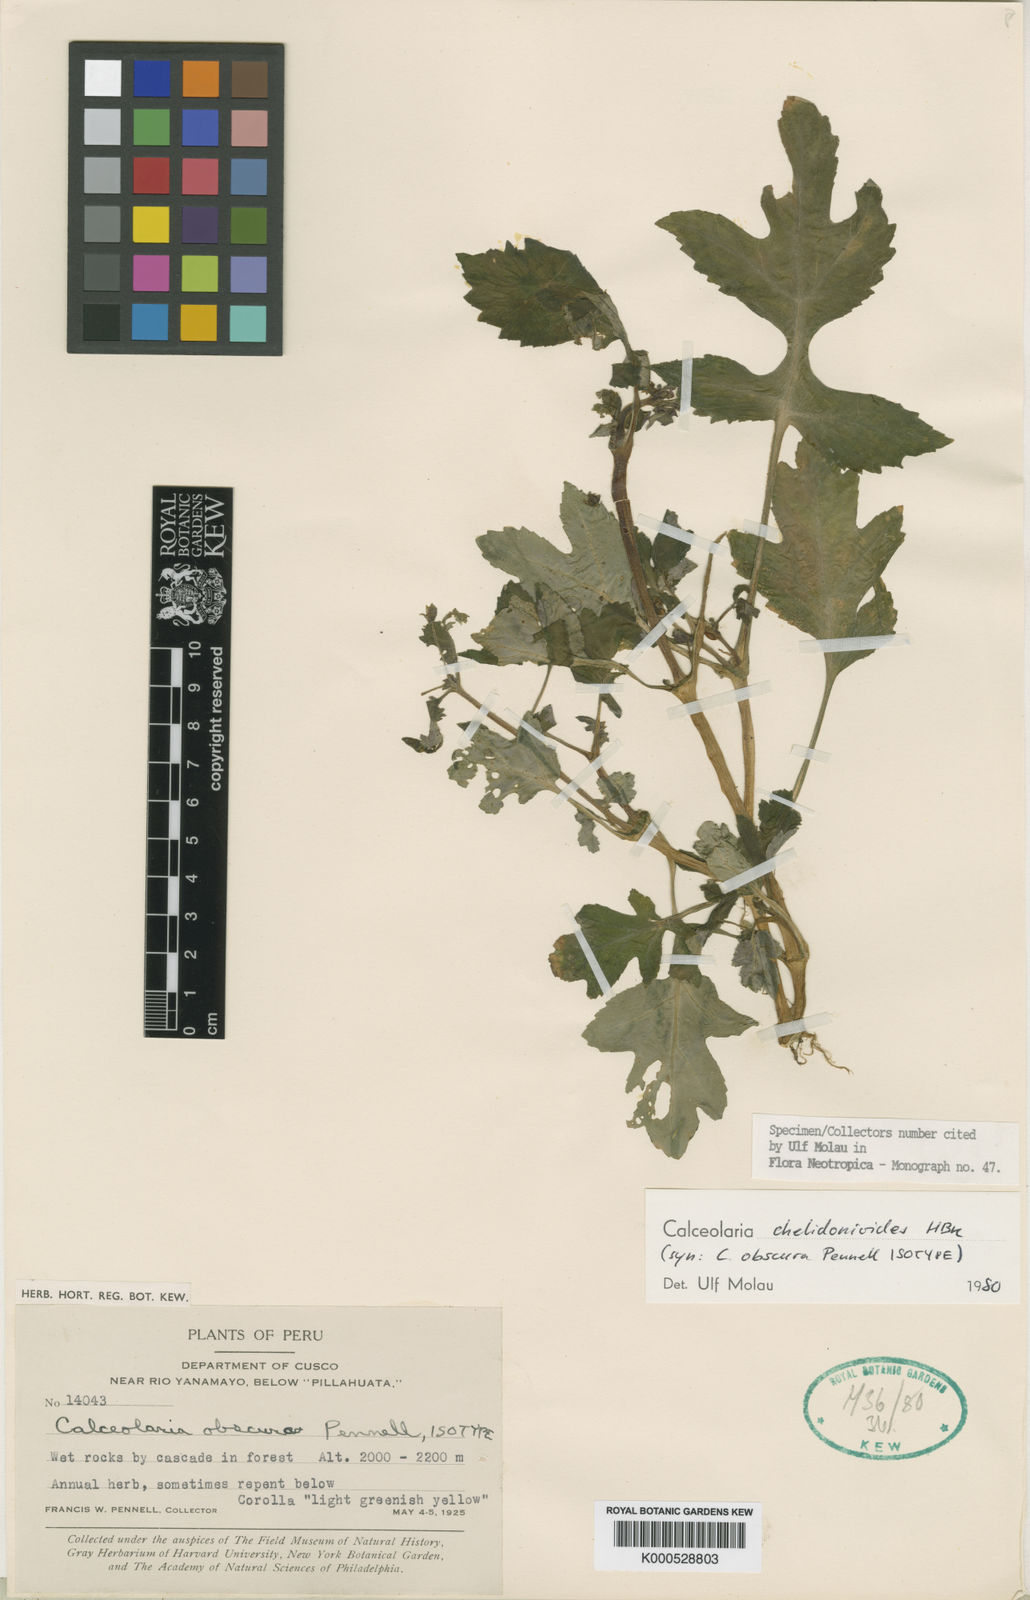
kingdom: Plantae
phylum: Tracheophyta
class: Magnoliopsida
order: Lamiales
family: Calceolariaceae
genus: Calceolaria
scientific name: Calceolaria chelidonioides
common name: Slipperwort
